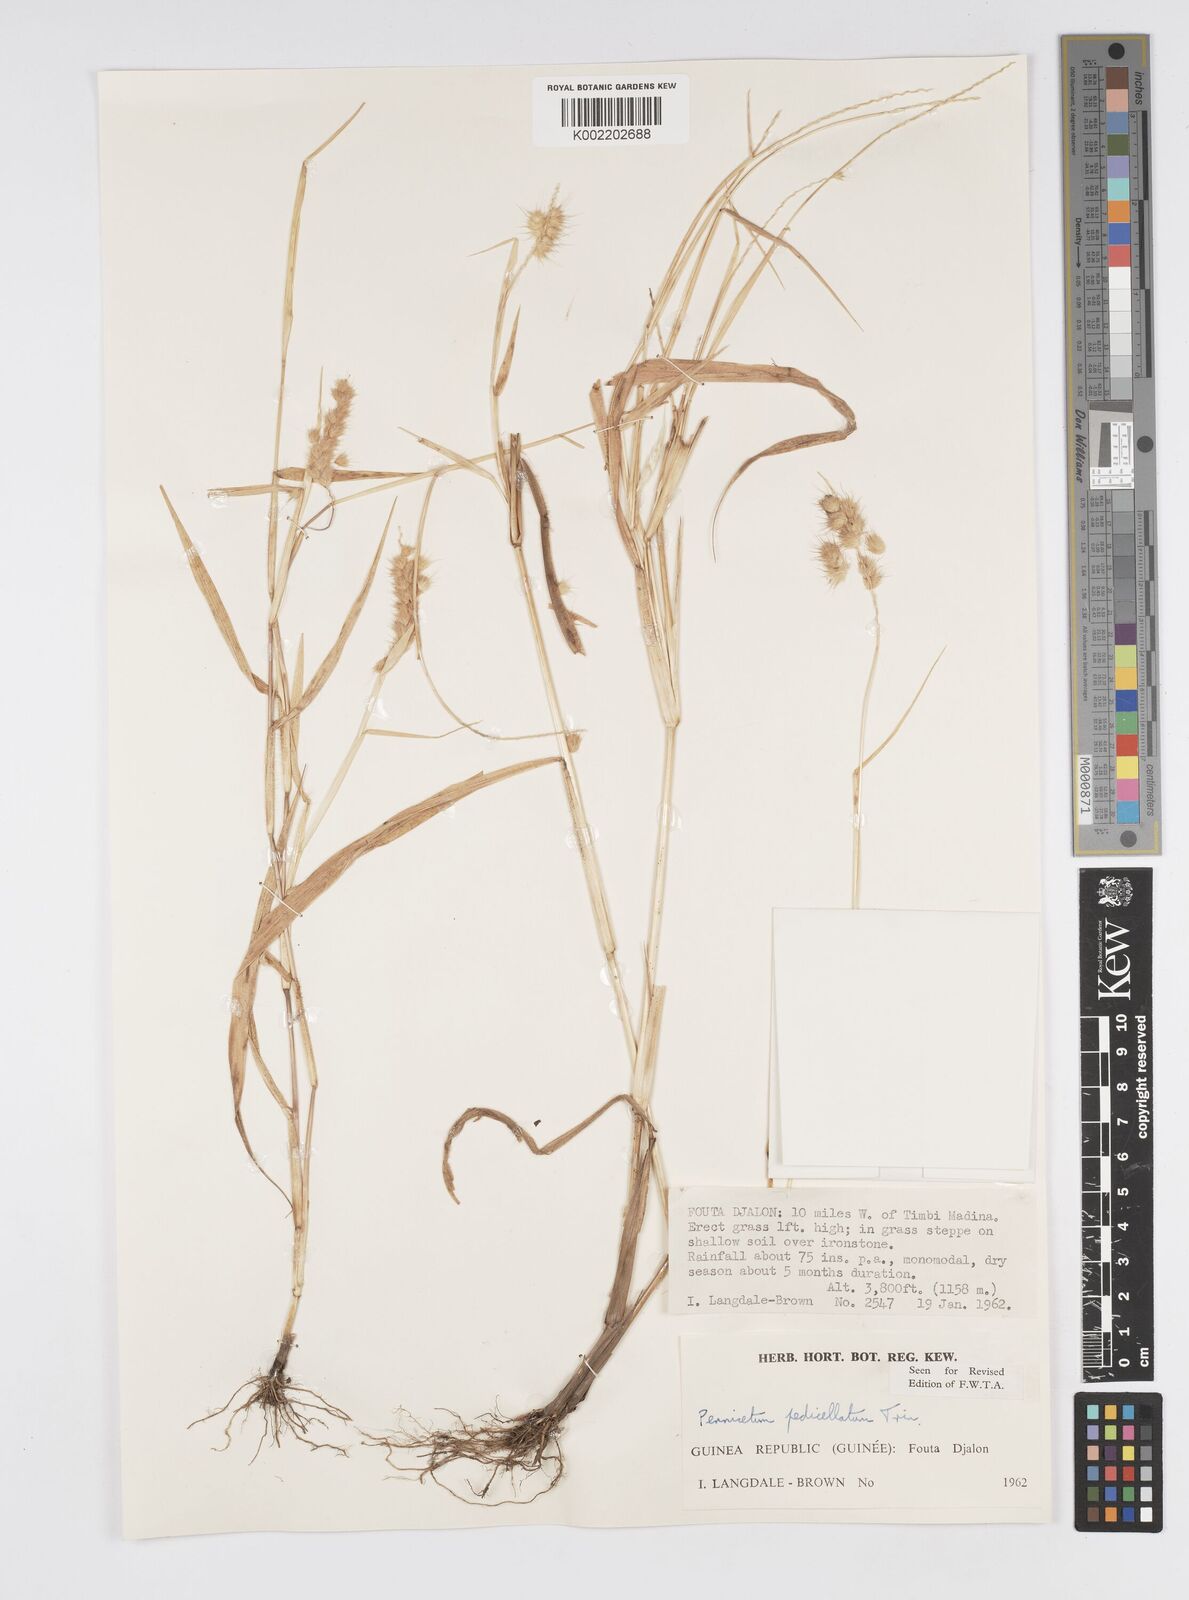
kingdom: Plantae
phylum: Tracheophyta
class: Liliopsida
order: Poales
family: Poaceae
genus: Cenchrus
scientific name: Cenchrus pedicellatus
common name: Hairy fountain grass
